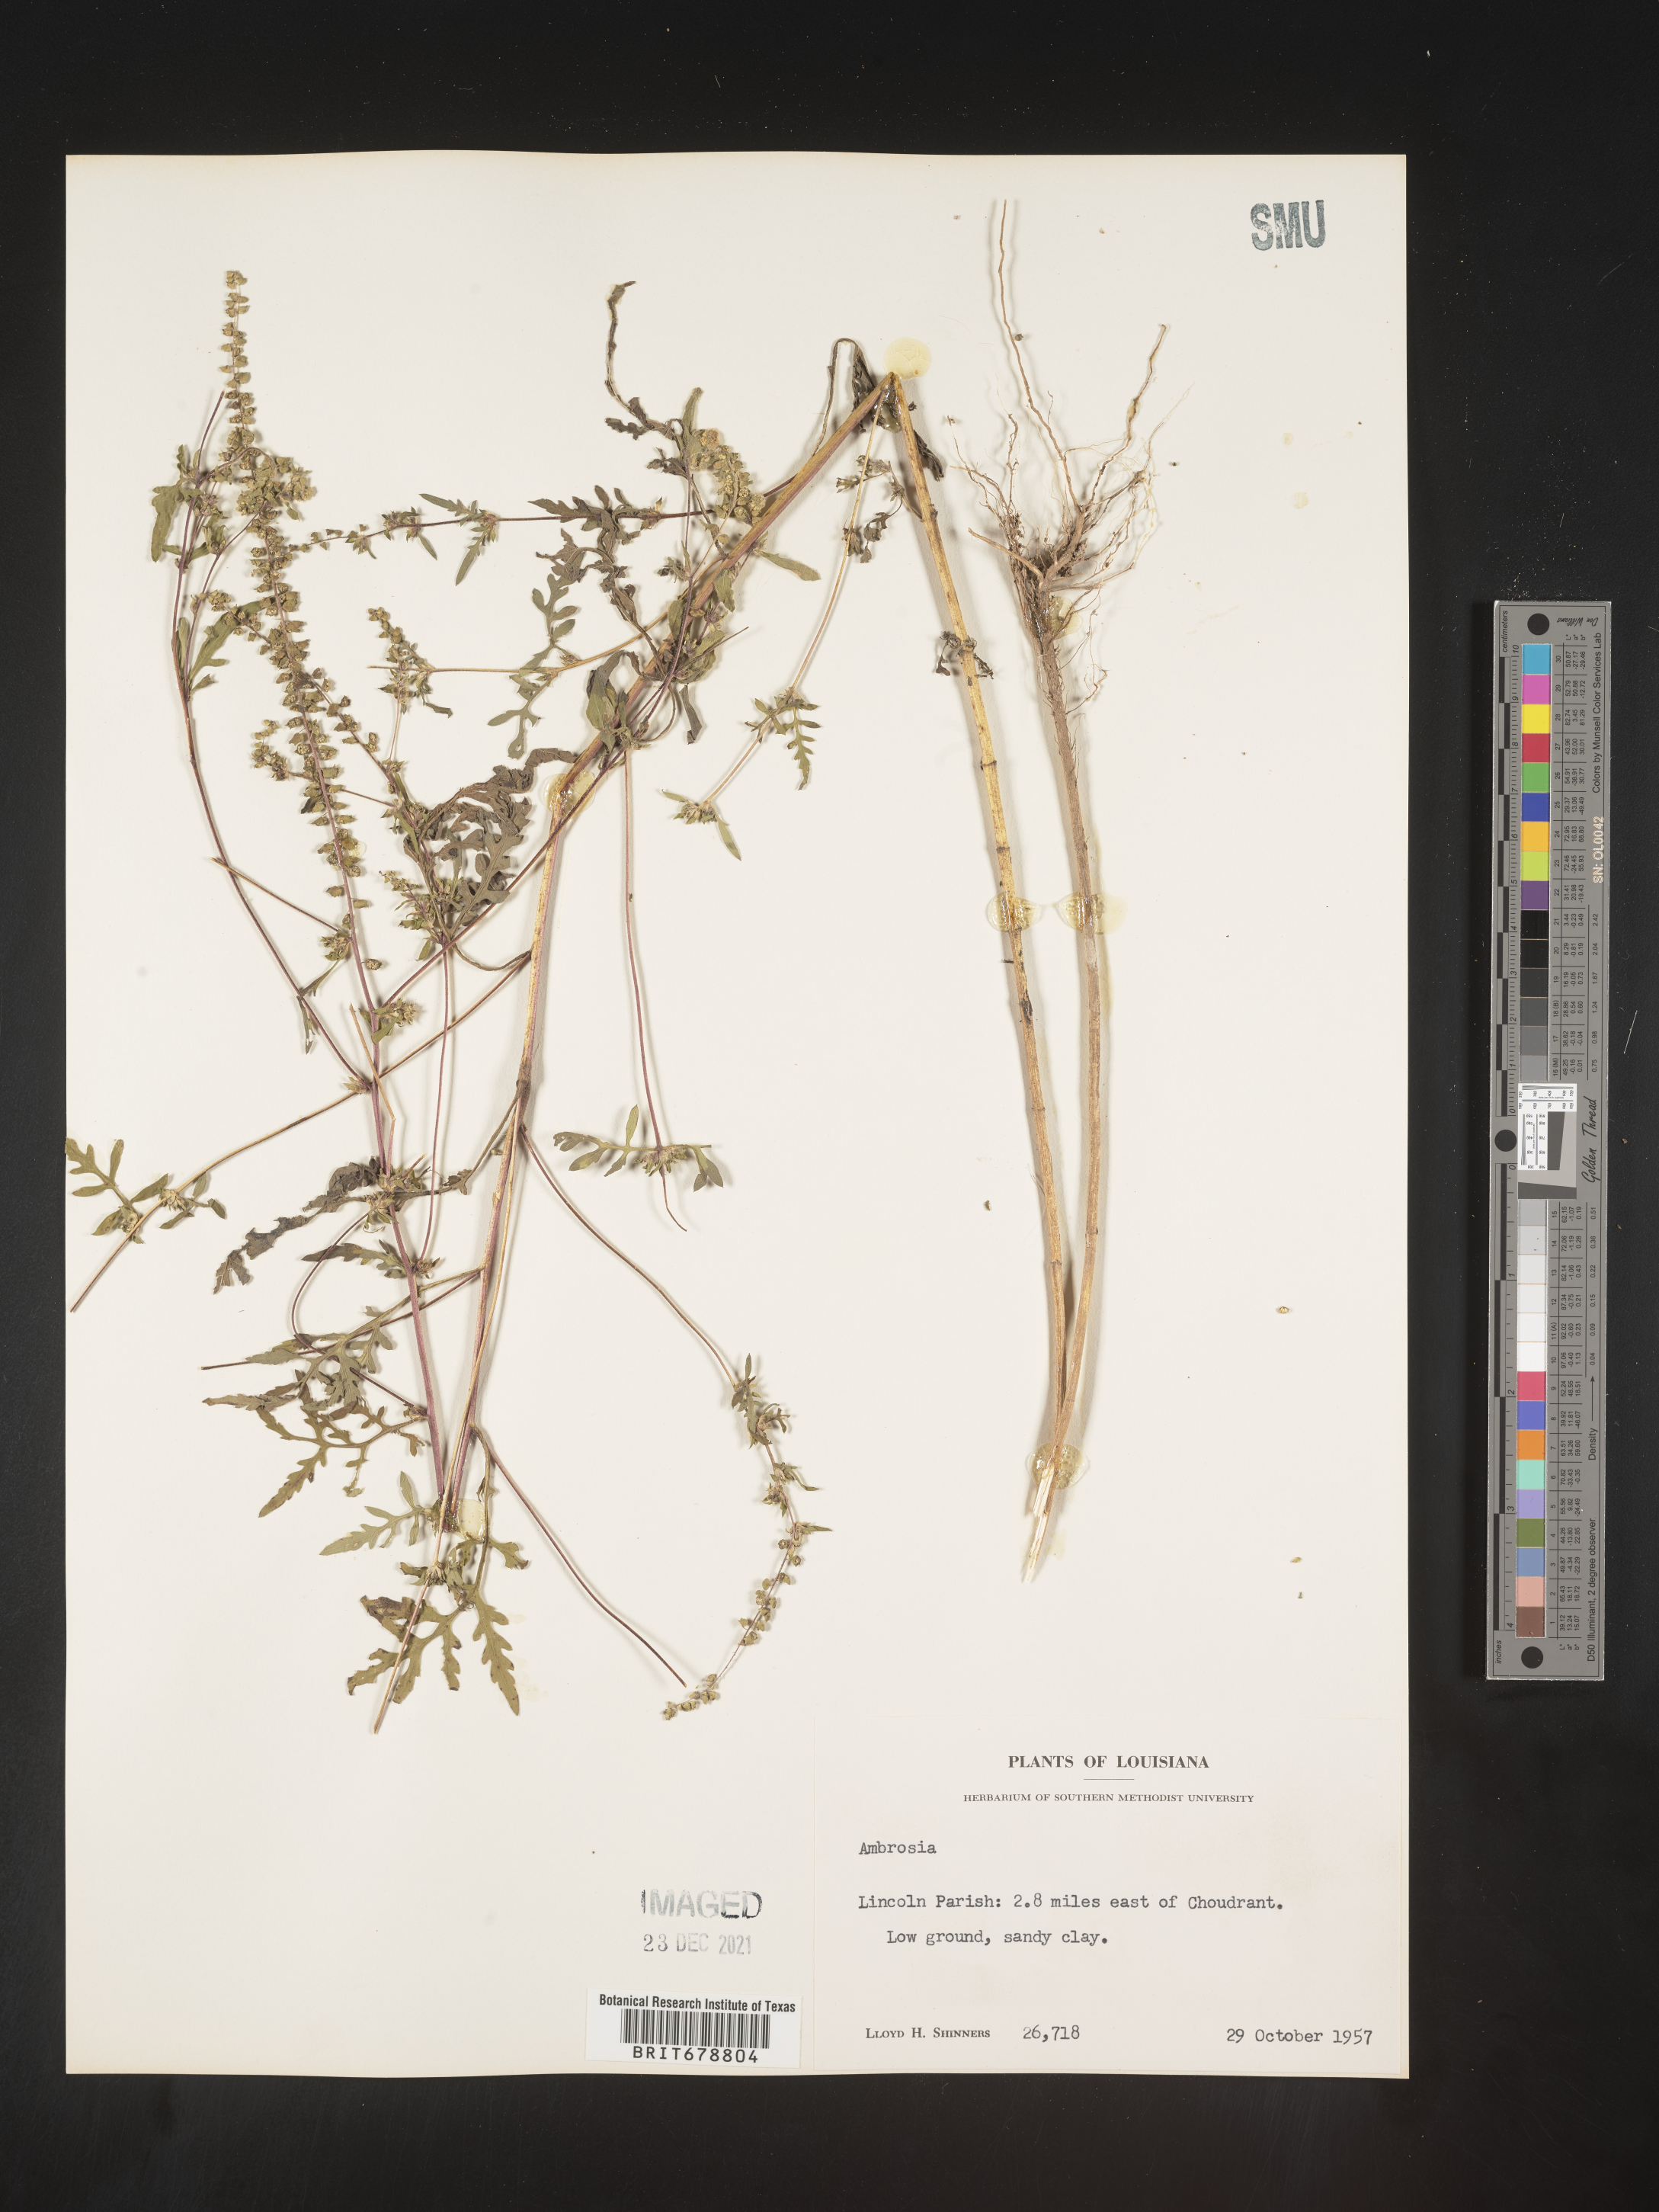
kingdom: Plantae
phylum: Tracheophyta
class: Magnoliopsida
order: Asterales
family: Asteraceae
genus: Ambrosia
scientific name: Ambrosia artemisiifolia
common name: Annual ragweed
